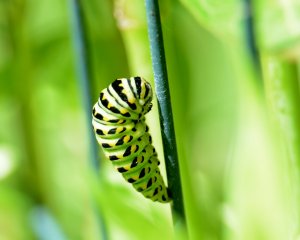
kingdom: Animalia
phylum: Arthropoda
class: Insecta
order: Lepidoptera
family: Papilionidae
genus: Papilio
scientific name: Papilio polyxenes
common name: Black Swallowtail
